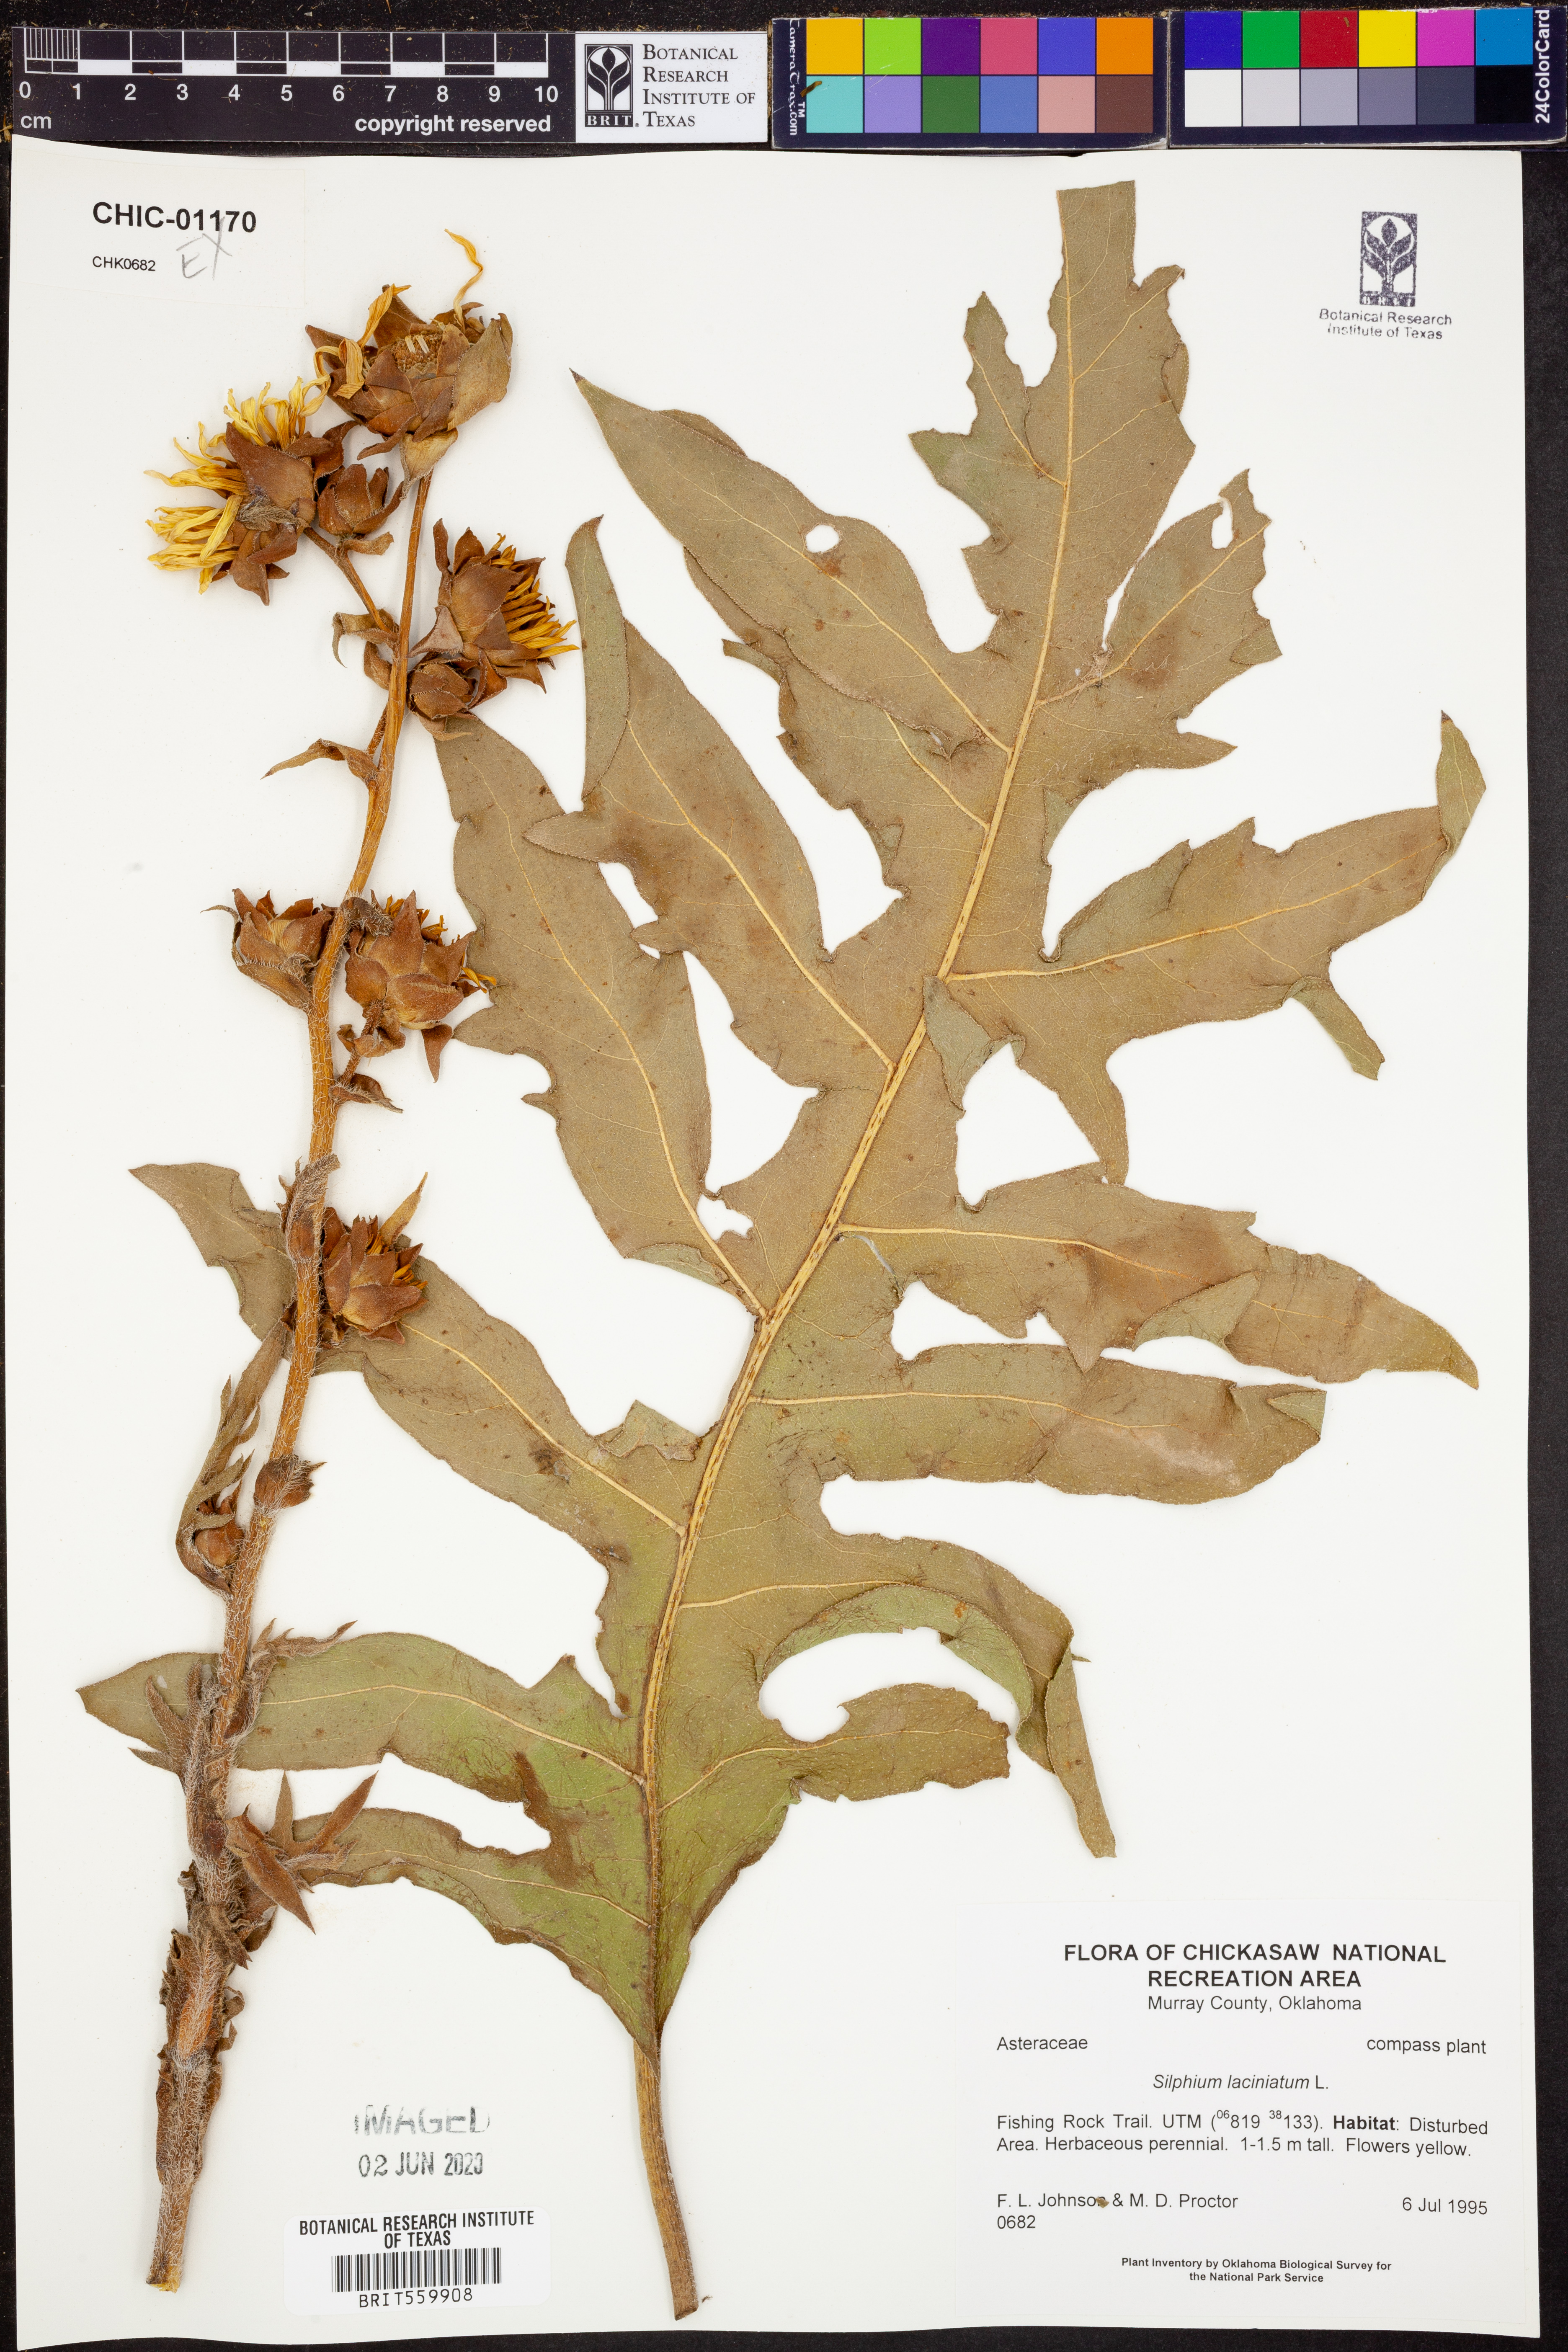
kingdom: Plantae
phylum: Tracheophyta
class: Magnoliopsida
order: Asterales
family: Asteraceae
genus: Silphium
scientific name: Silphium laciniatum
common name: Polarplant
